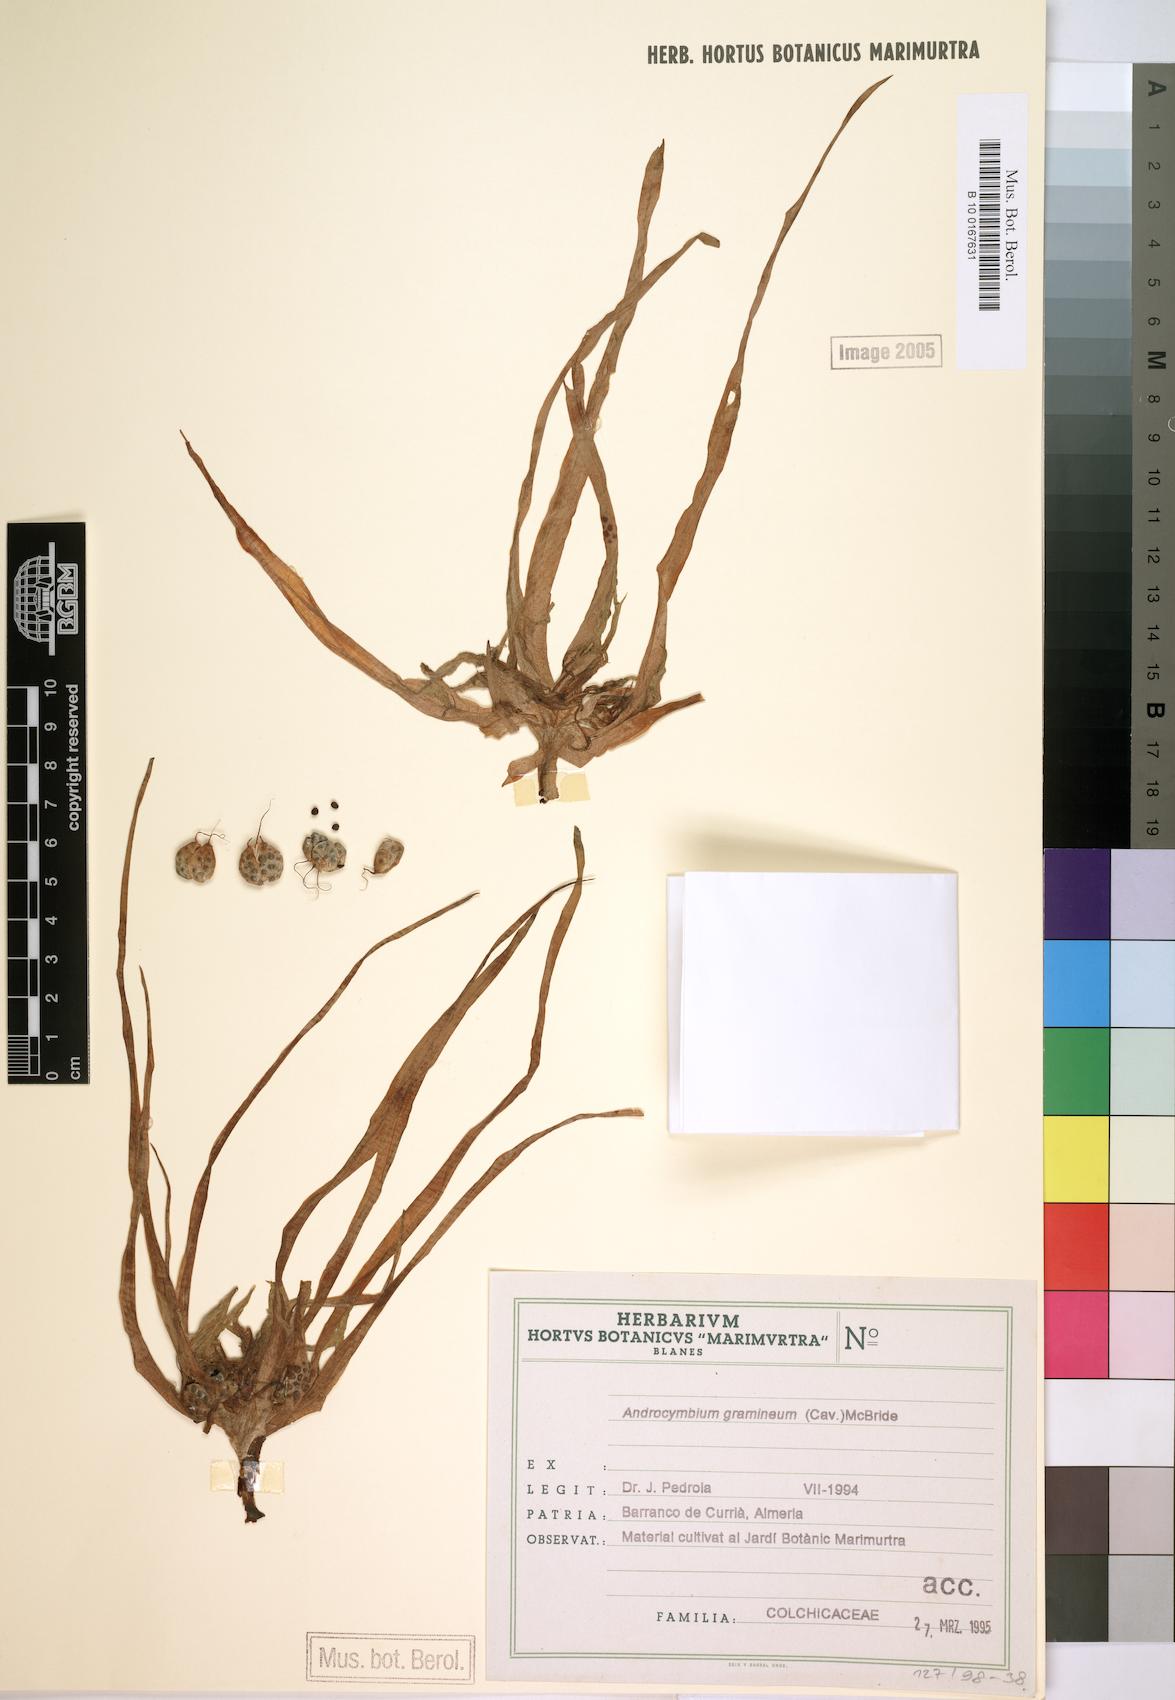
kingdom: Plantae
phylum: Tracheophyta
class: Liliopsida
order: Liliales
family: Colchicaceae
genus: Colchicum
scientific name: Colchicum gramineum
